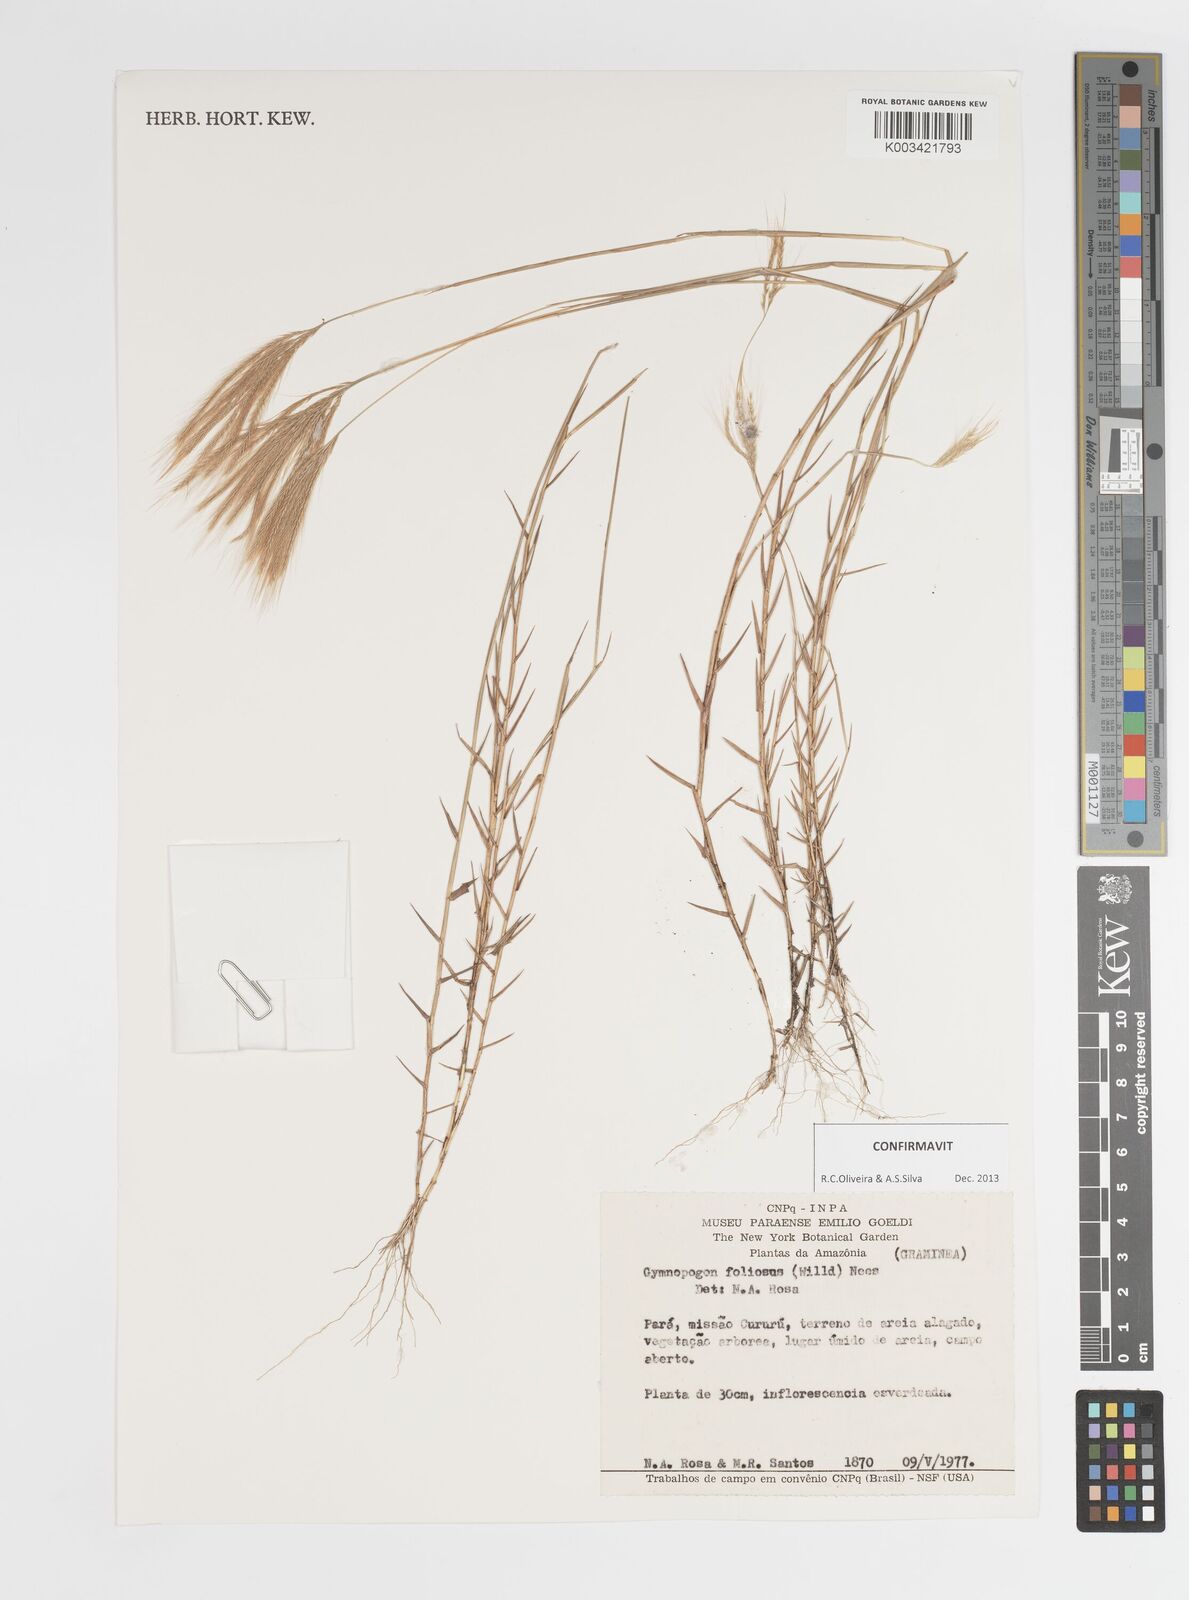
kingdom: Plantae
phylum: Tracheophyta
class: Liliopsida
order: Poales
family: Poaceae
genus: Gymnopogon
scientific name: Gymnopogon foliosus
